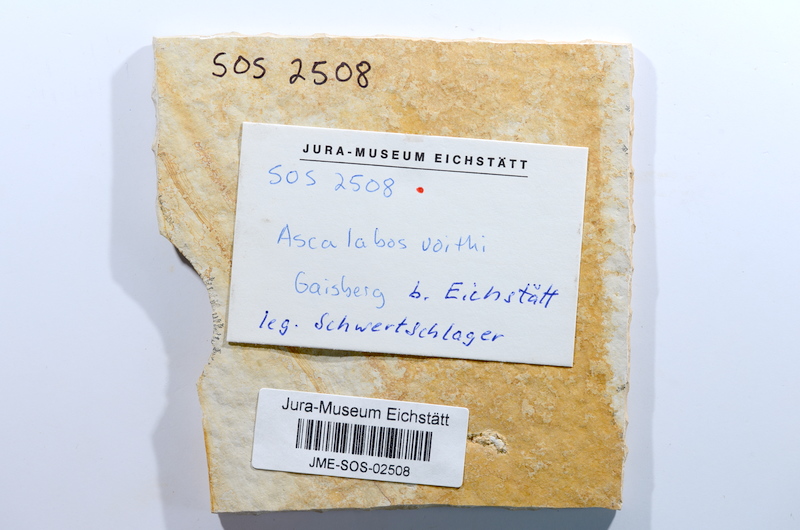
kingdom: Animalia
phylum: Chordata
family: Ascalaboidae
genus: Ascalabos
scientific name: Ascalabos voithii
